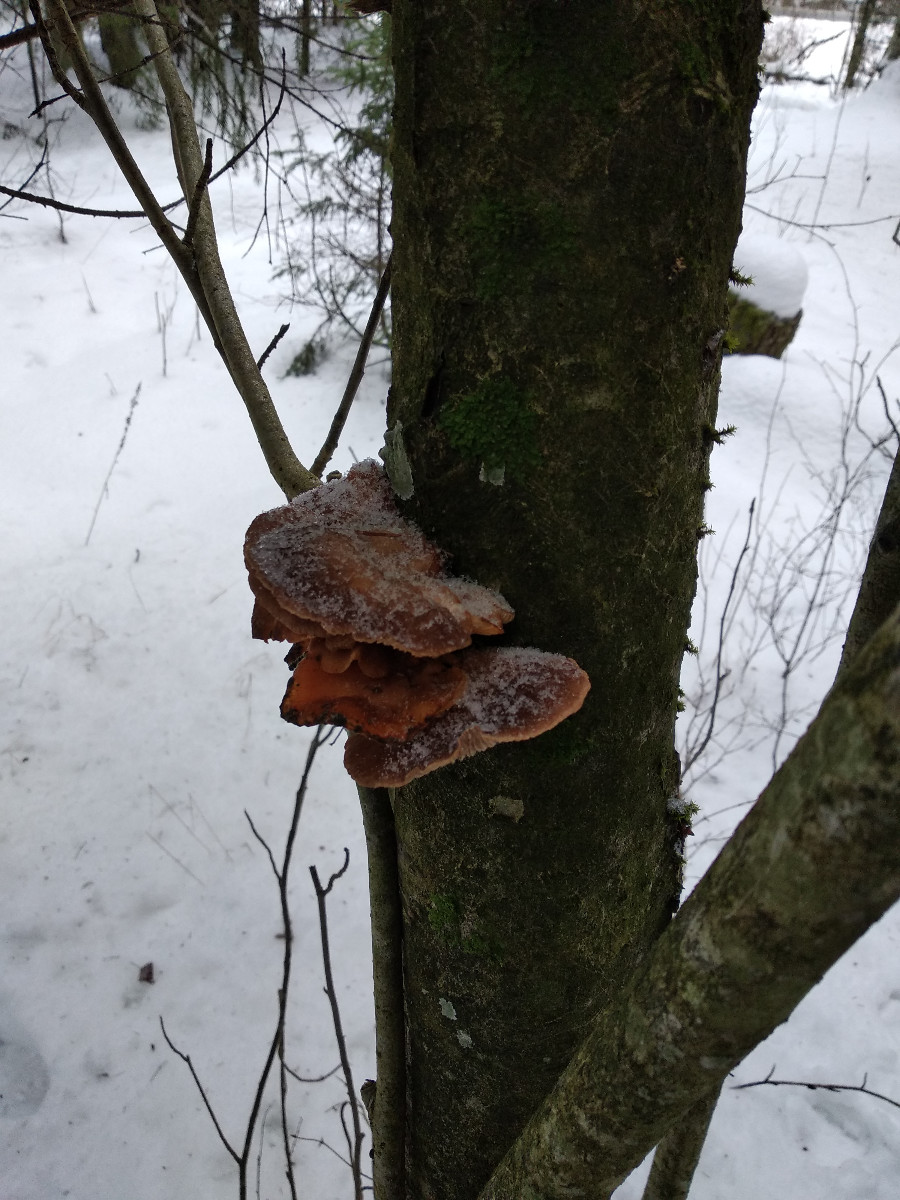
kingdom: Fungi
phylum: Basidiomycota
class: Agaricomycetes
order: Agaricales
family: Pleurotaceae
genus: Pleurotus
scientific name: Pleurotus
